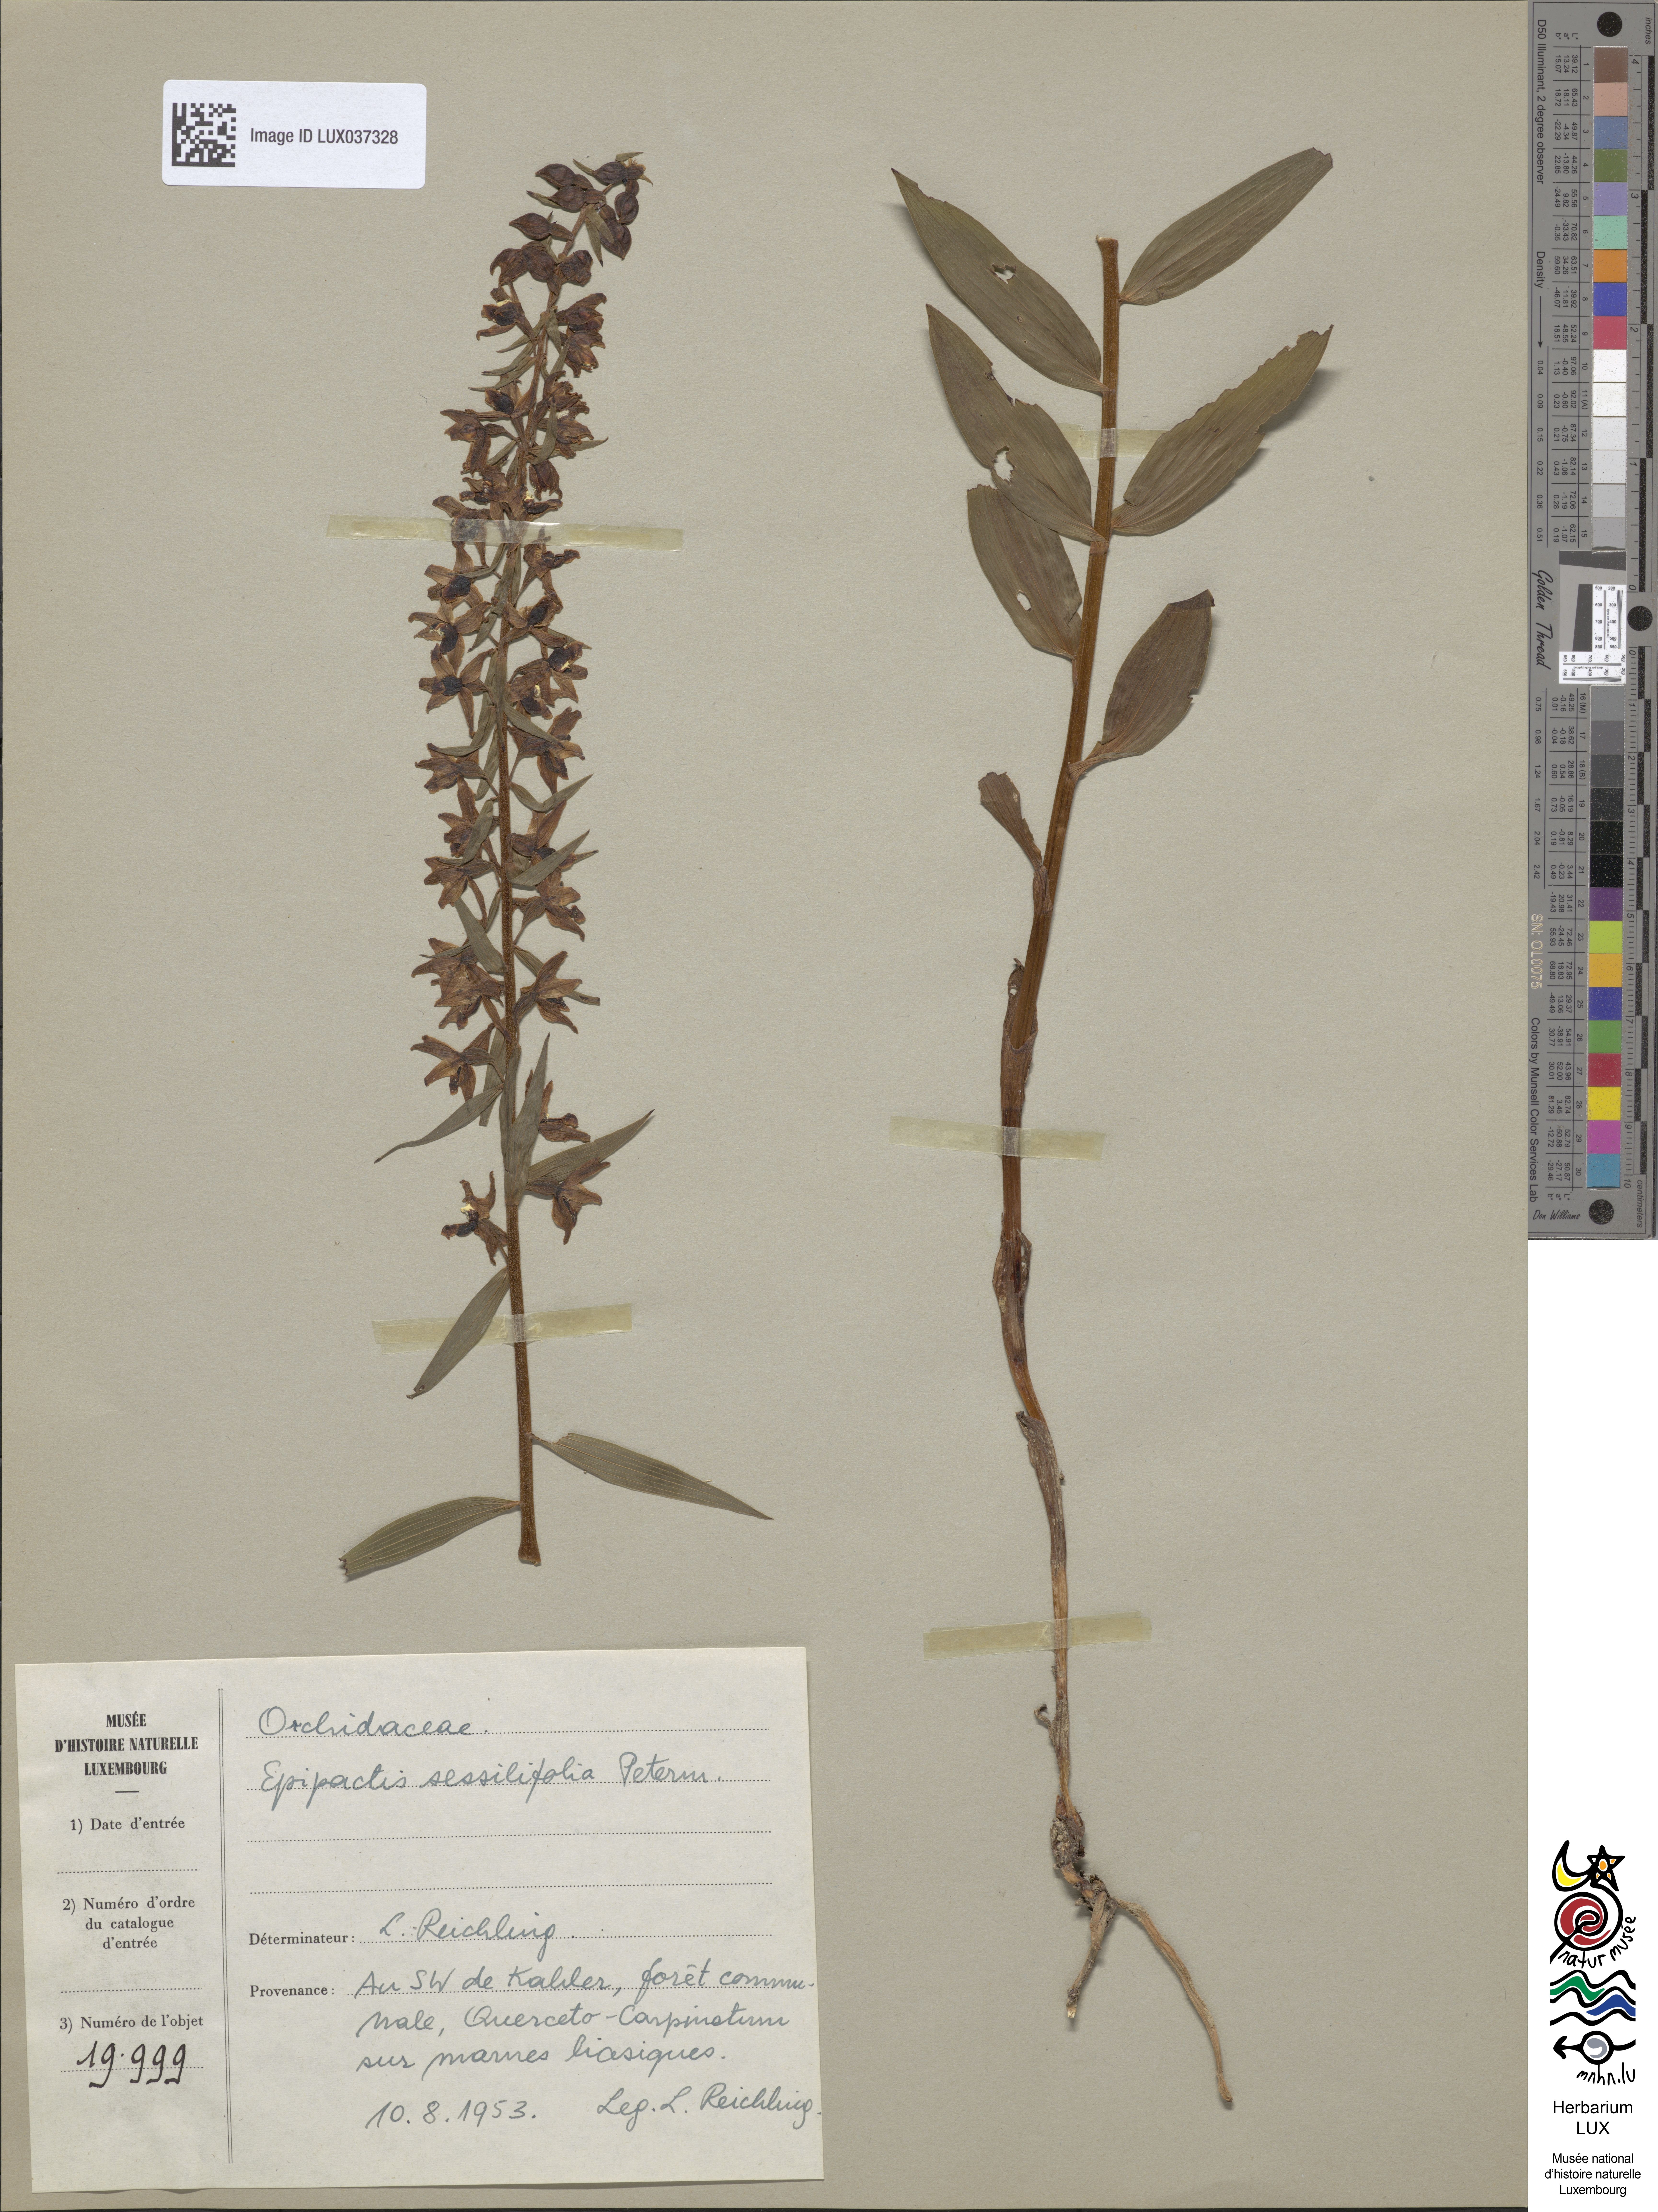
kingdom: Plantae
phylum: Tracheophyta
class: Liliopsida
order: Asparagales
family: Orchidaceae
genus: Epipactis
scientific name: Epipactis purpurata
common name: Violet helleborine
